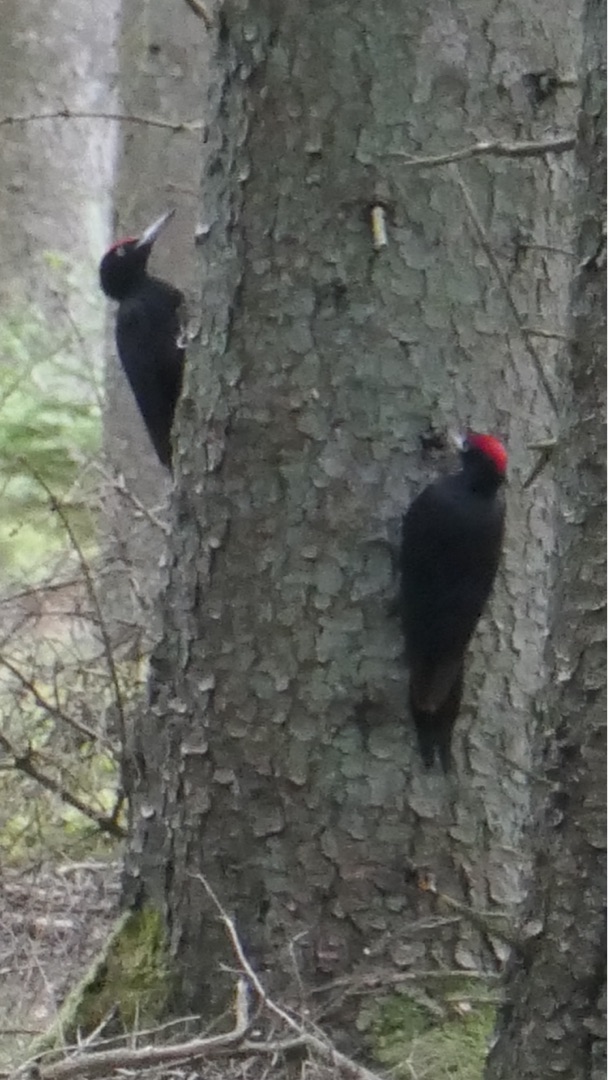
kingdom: Animalia
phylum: Chordata
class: Aves
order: Piciformes
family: Picidae
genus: Dryocopus
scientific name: Dryocopus martius
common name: Sortspætte
